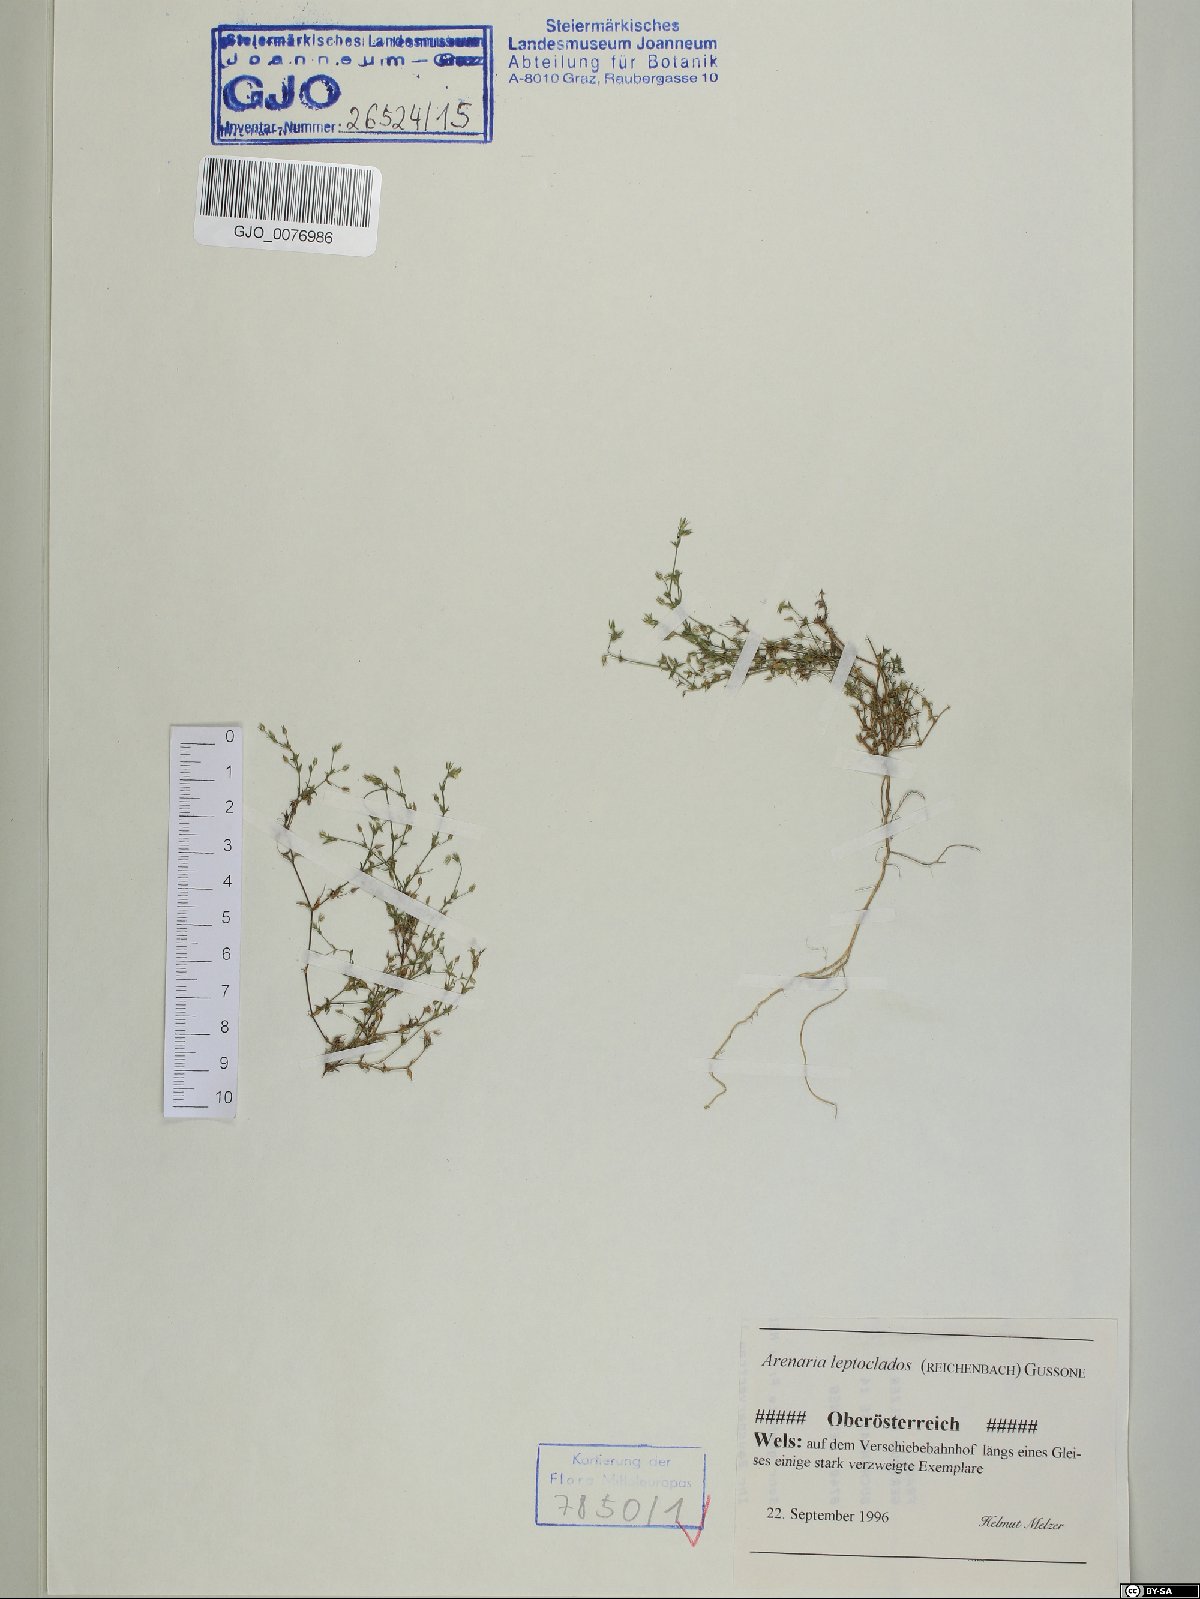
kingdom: Plantae
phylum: Tracheophyta
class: Magnoliopsida
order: Caryophyllales
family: Caryophyllaceae
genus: Arenaria
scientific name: Arenaria leptoclados
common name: Thyme-leaved sandwort
